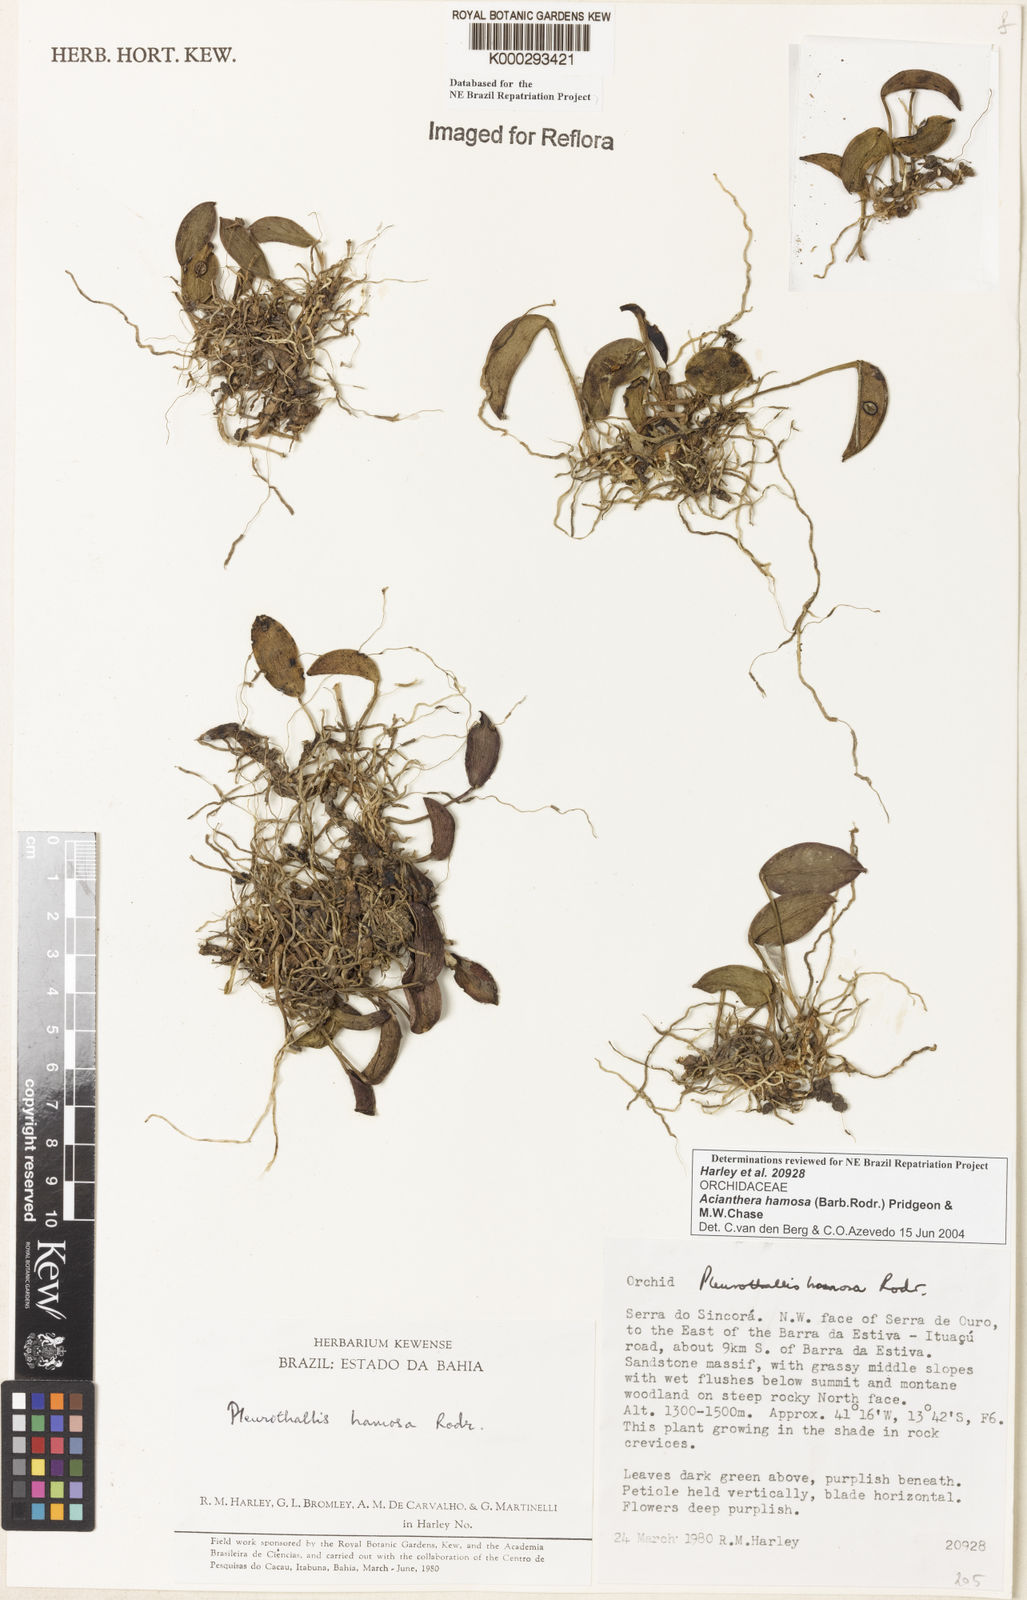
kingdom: Plantae
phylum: Tracheophyta
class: Liliopsida
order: Asparagales
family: Orchidaceae
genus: Acianthera
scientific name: Acianthera prolifera
